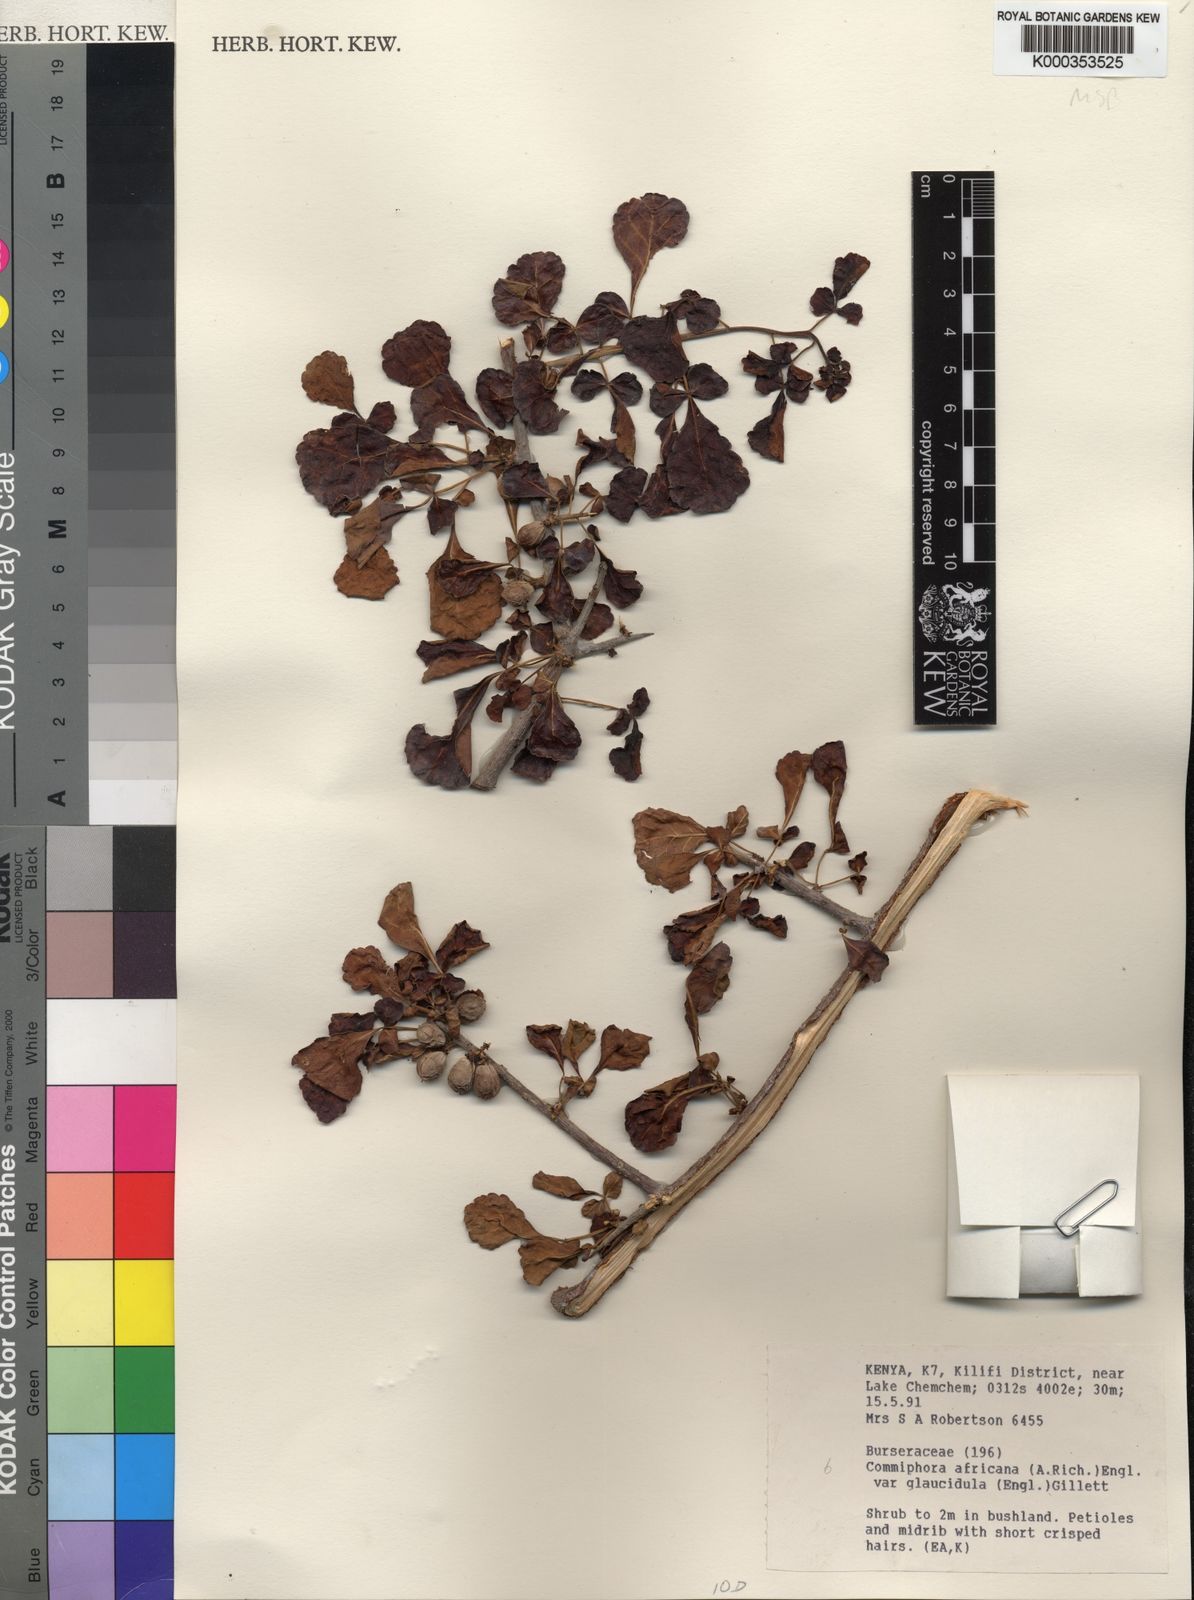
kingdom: Plantae
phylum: Tracheophyta
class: Magnoliopsida
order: Sapindales
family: Burseraceae
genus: Commiphora
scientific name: Commiphora africana
